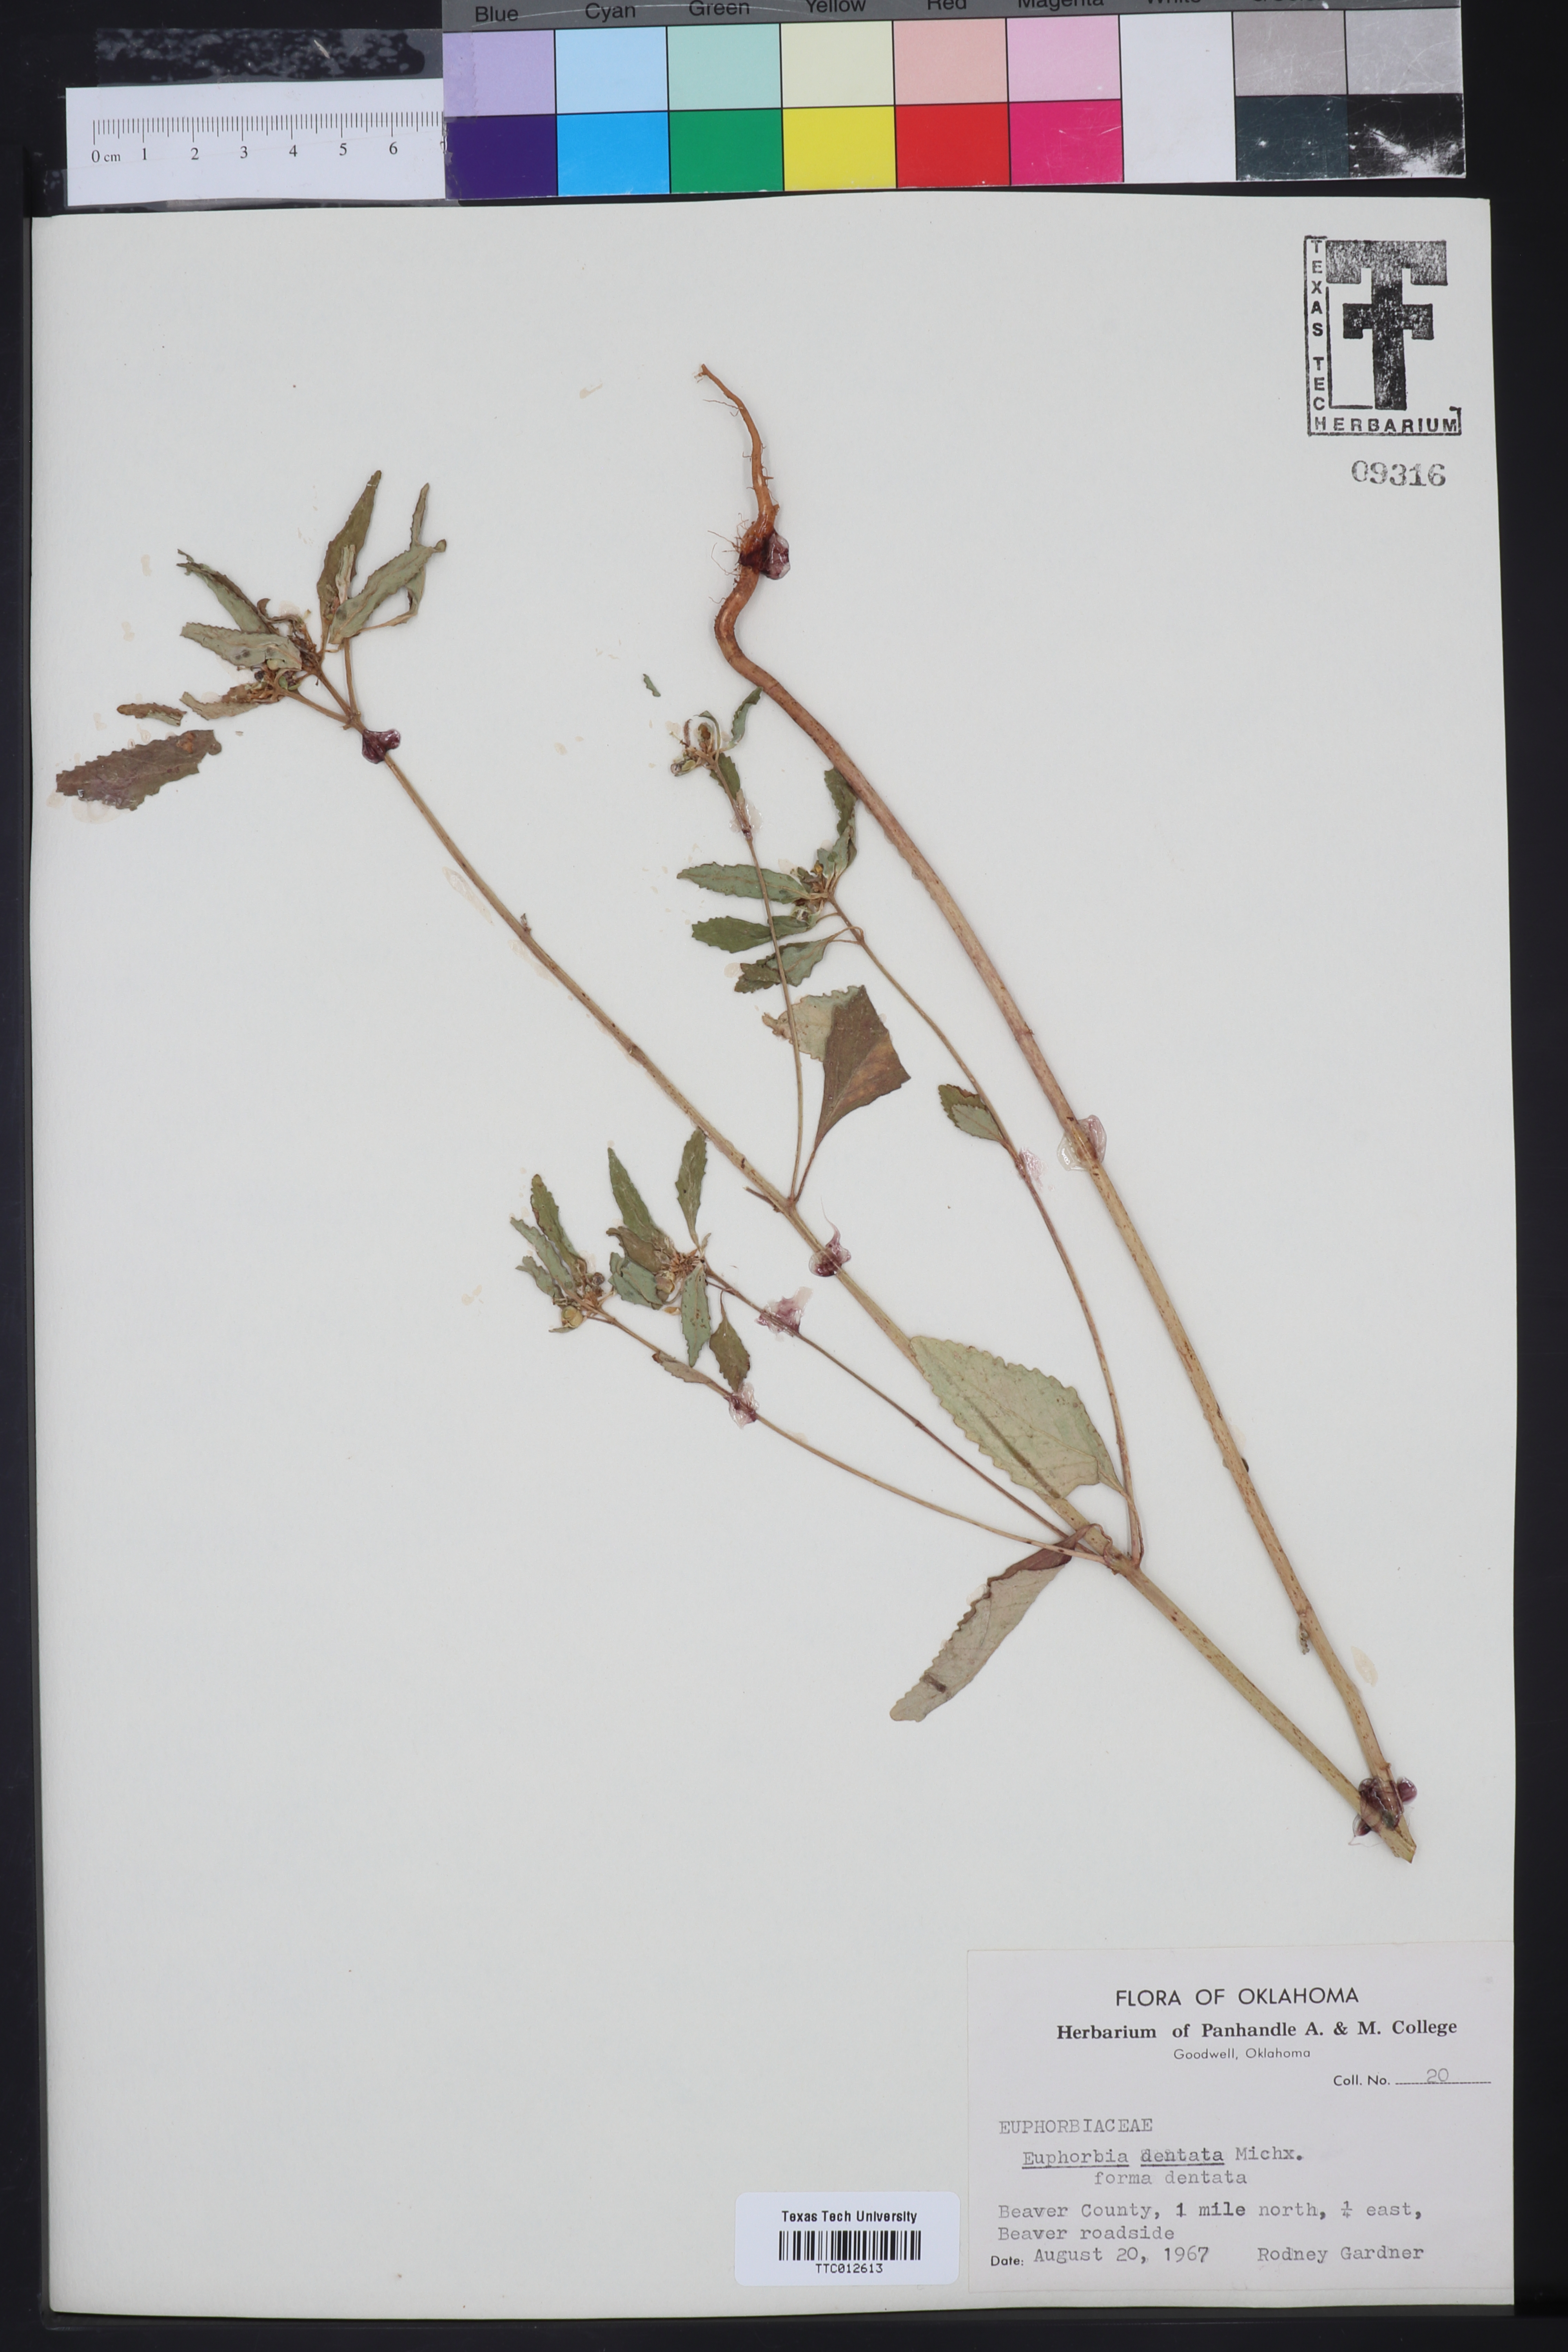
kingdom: Plantae
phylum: Tracheophyta
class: Magnoliopsida
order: Malpighiales
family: Euphorbiaceae
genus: Euphorbia
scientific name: Euphorbia dentata
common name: Dentate spurge
